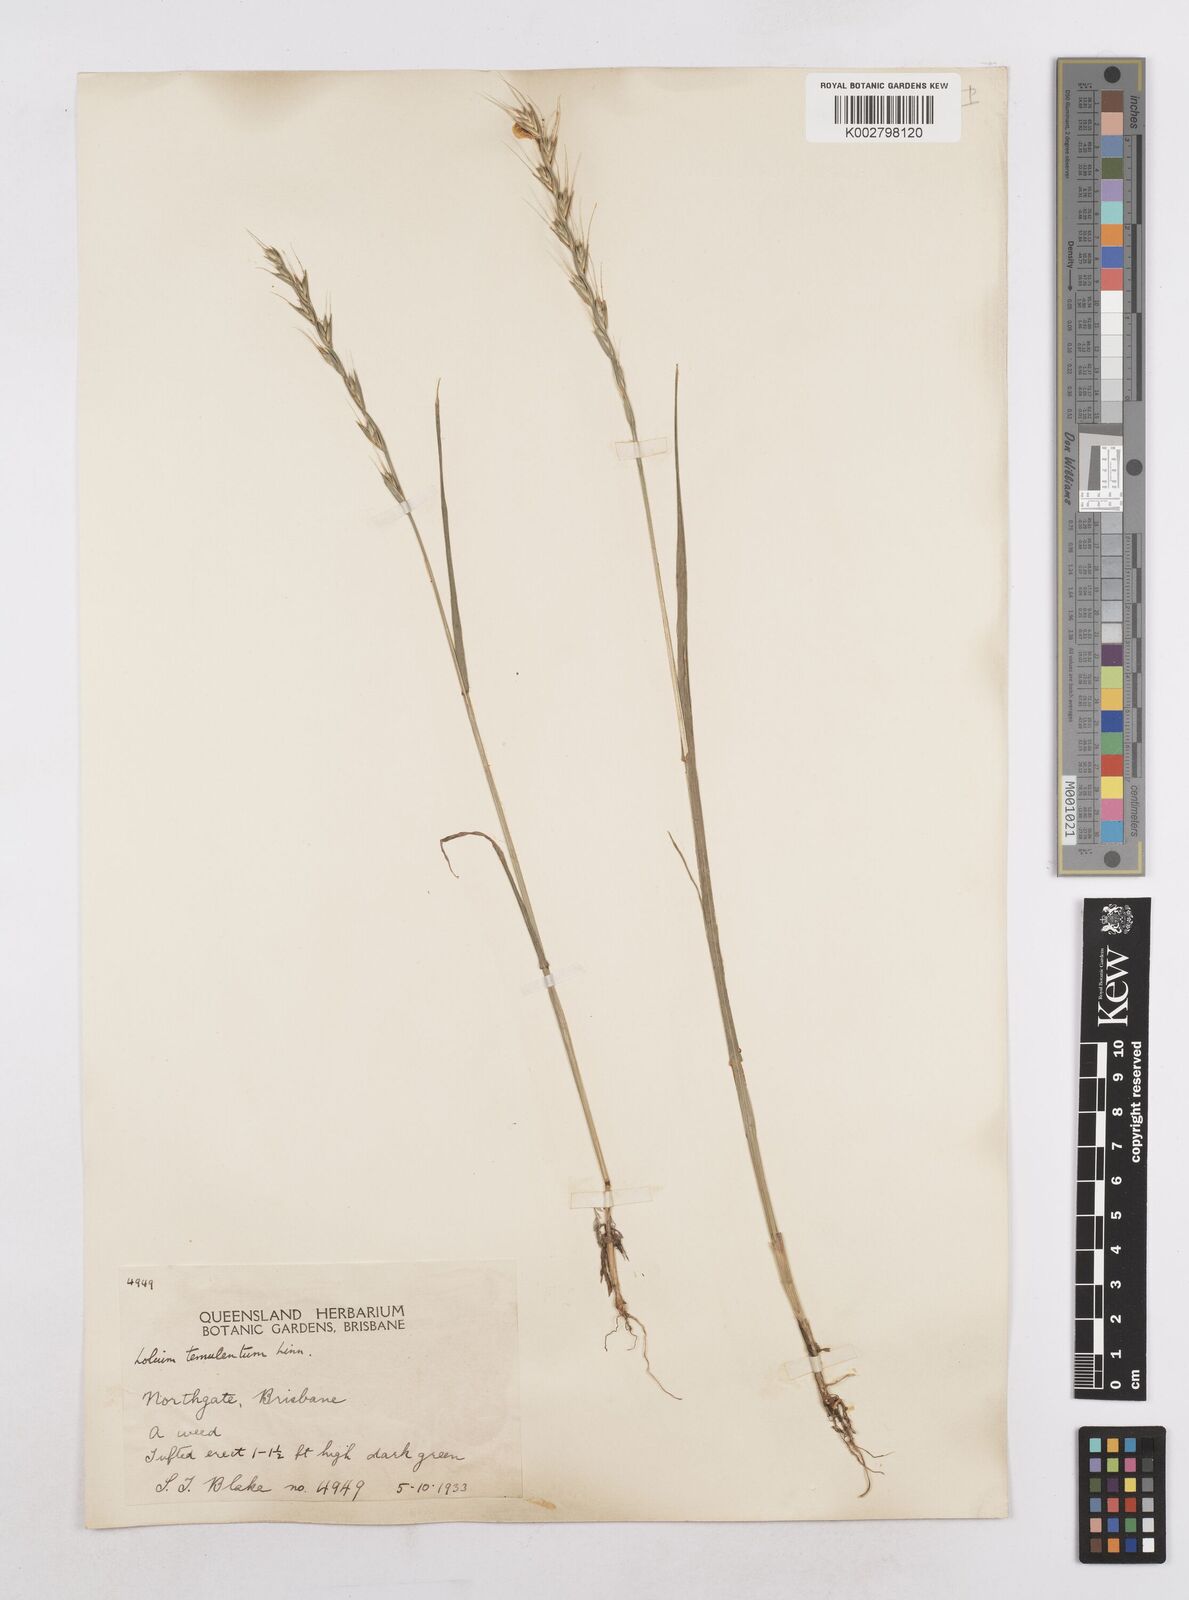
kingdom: Plantae
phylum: Tracheophyta
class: Liliopsida
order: Poales
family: Poaceae
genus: Lolium
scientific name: Lolium temulentum
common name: Darnel
